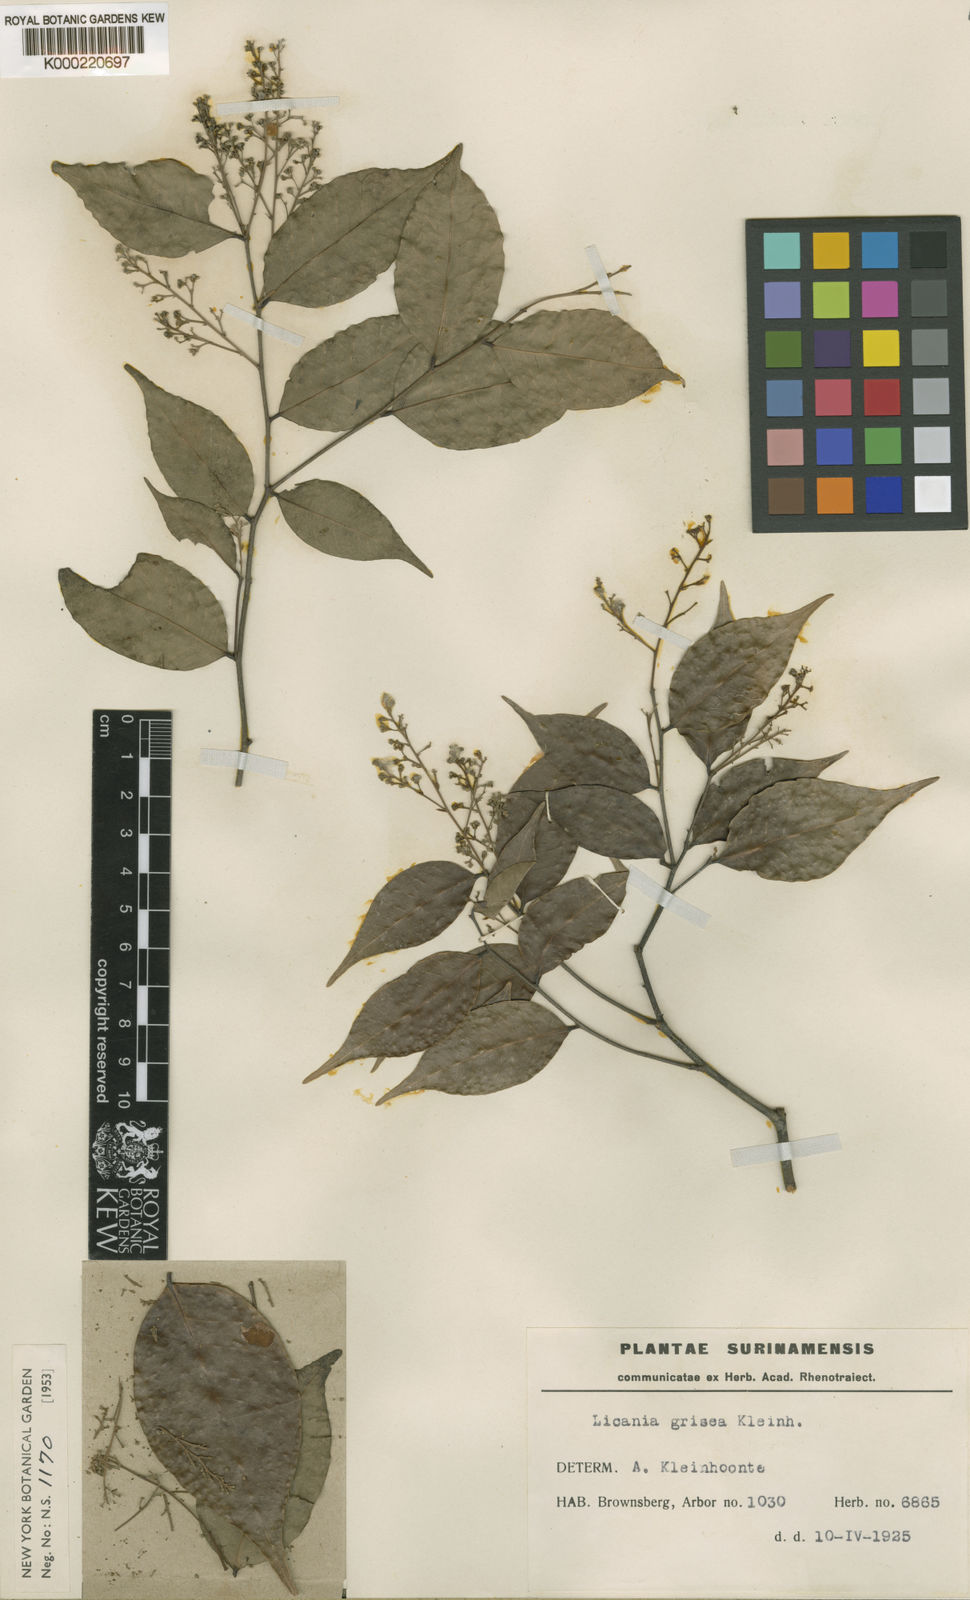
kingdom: Plantae
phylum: Tracheophyta
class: Magnoliopsida
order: Malpighiales
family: Chrysobalanaceae
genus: Licania
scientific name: Licania hypoleuca
